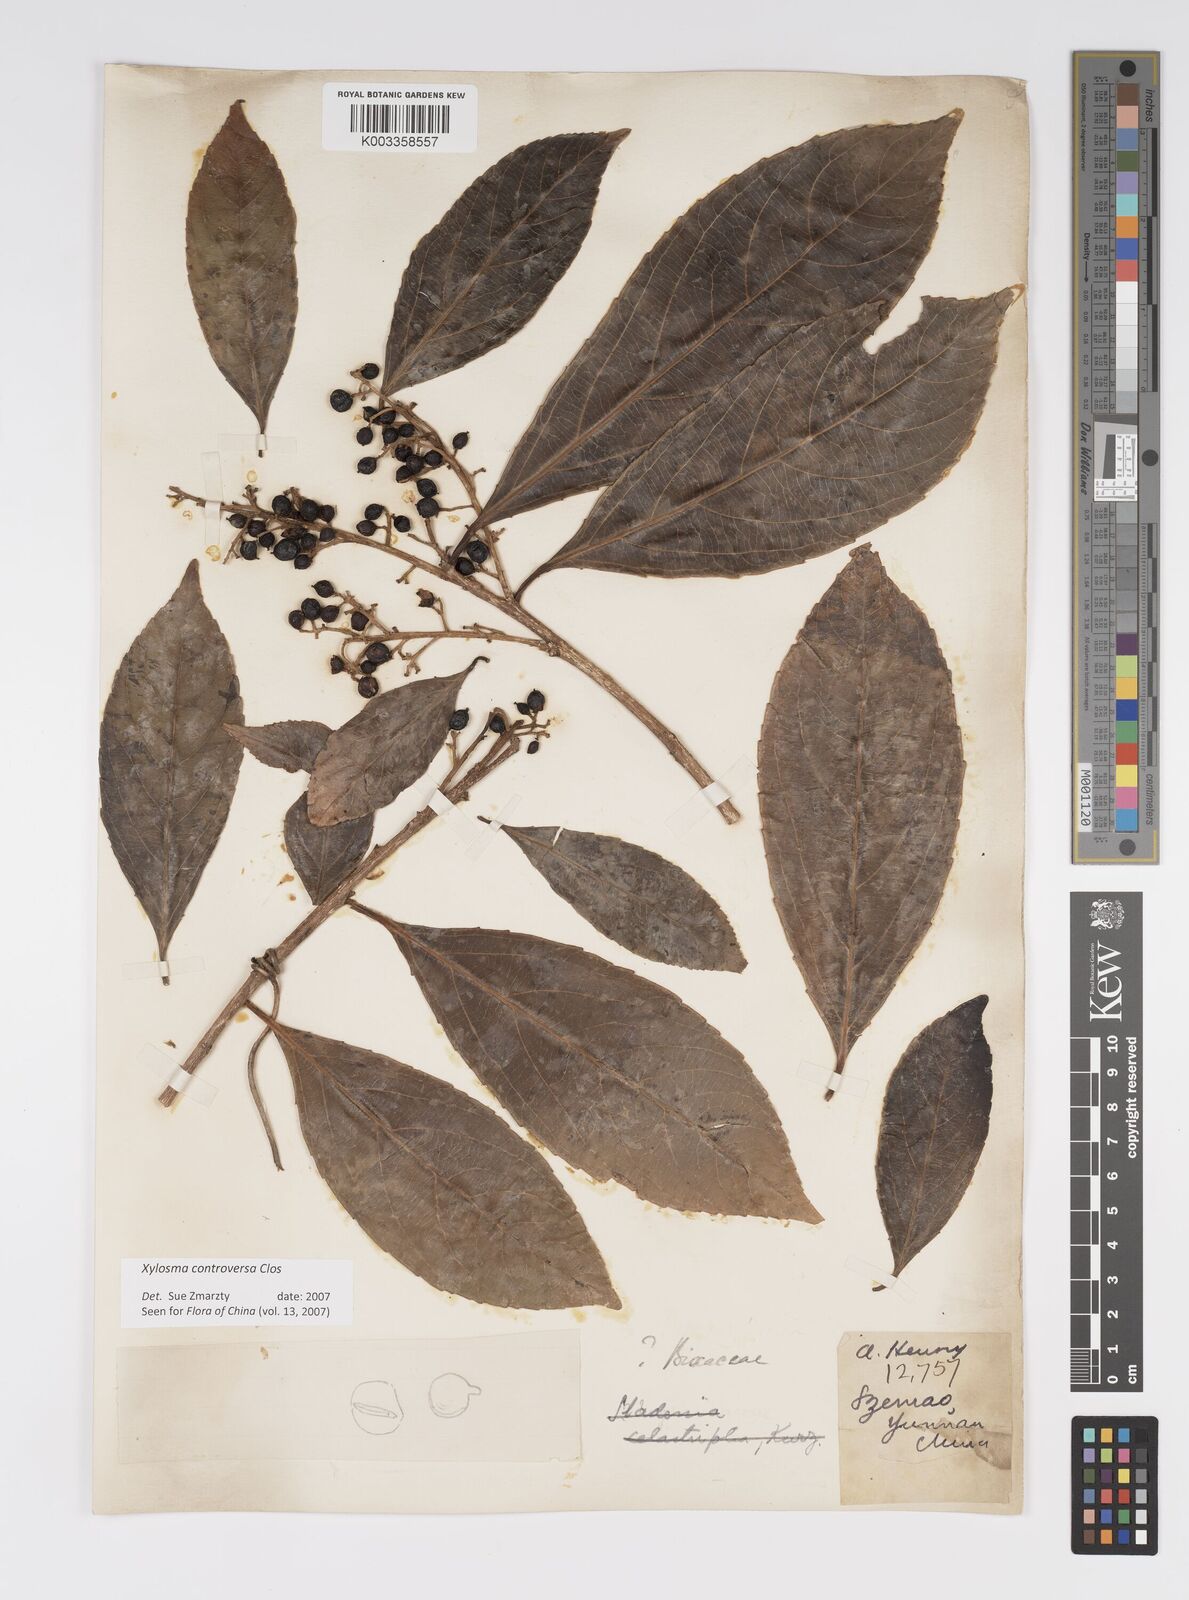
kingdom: Plantae
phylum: Tracheophyta
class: Magnoliopsida
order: Malpighiales
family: Salicaceae
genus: Xylosma
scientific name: Xylosma controversa
